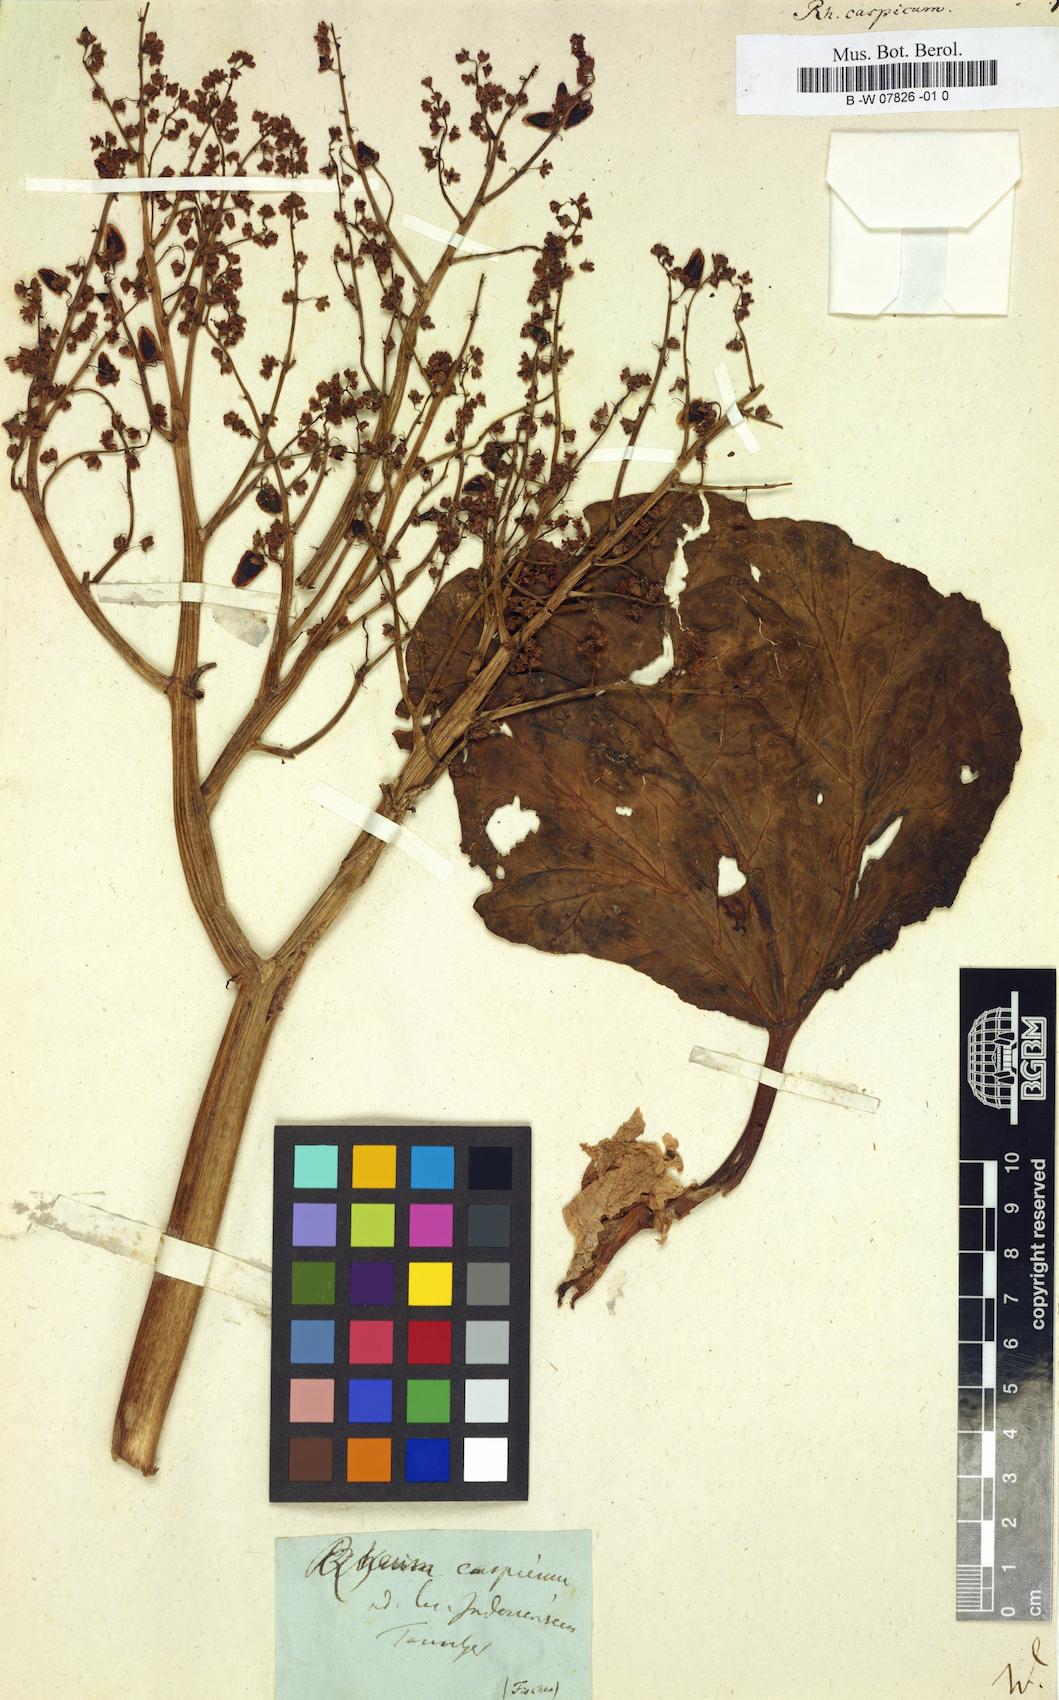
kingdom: Plantae
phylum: Tracheophyta
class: Magnoliopsida
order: Caryophyllales
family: Polygonaceae
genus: Rheum
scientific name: Rheum tataricum
